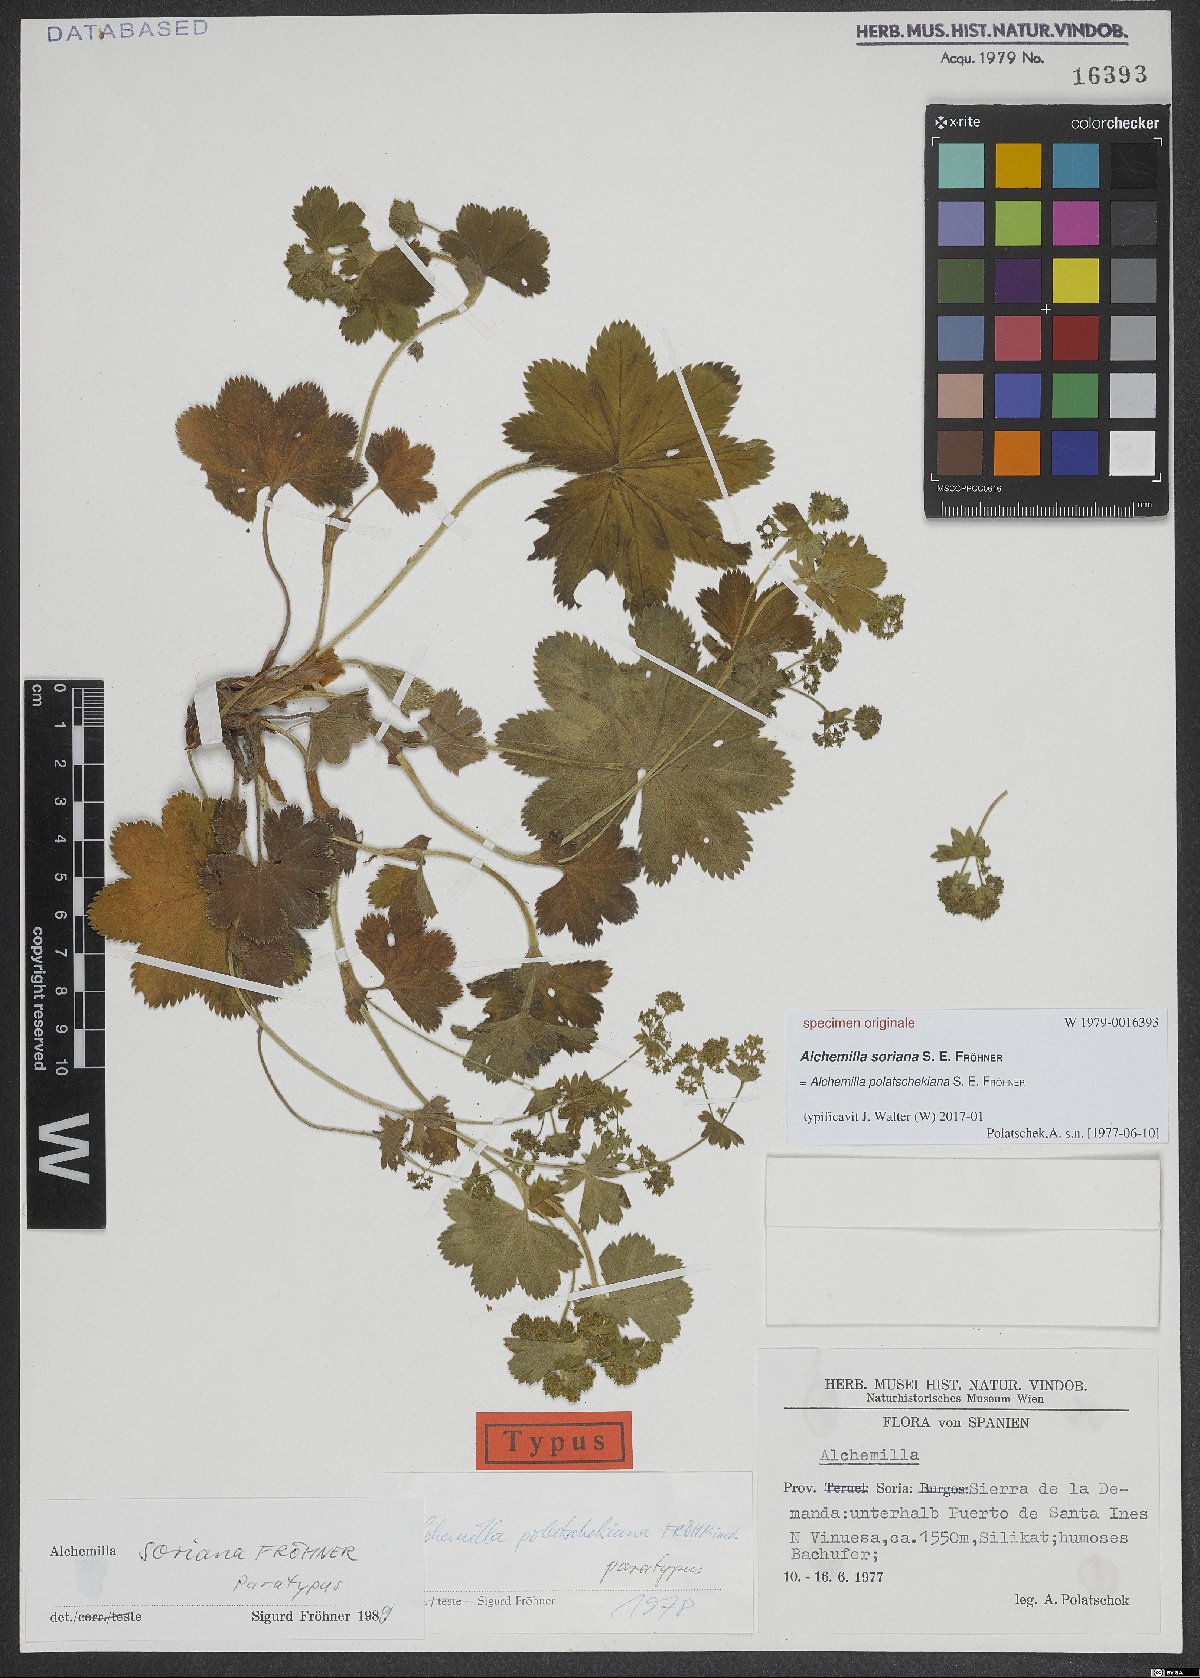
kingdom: Plantae
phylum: Tracheophyta
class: Magnoliopsida
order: Rosales
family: Rosaceae
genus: Alchemilla
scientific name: Alchemilla polatschekiana
